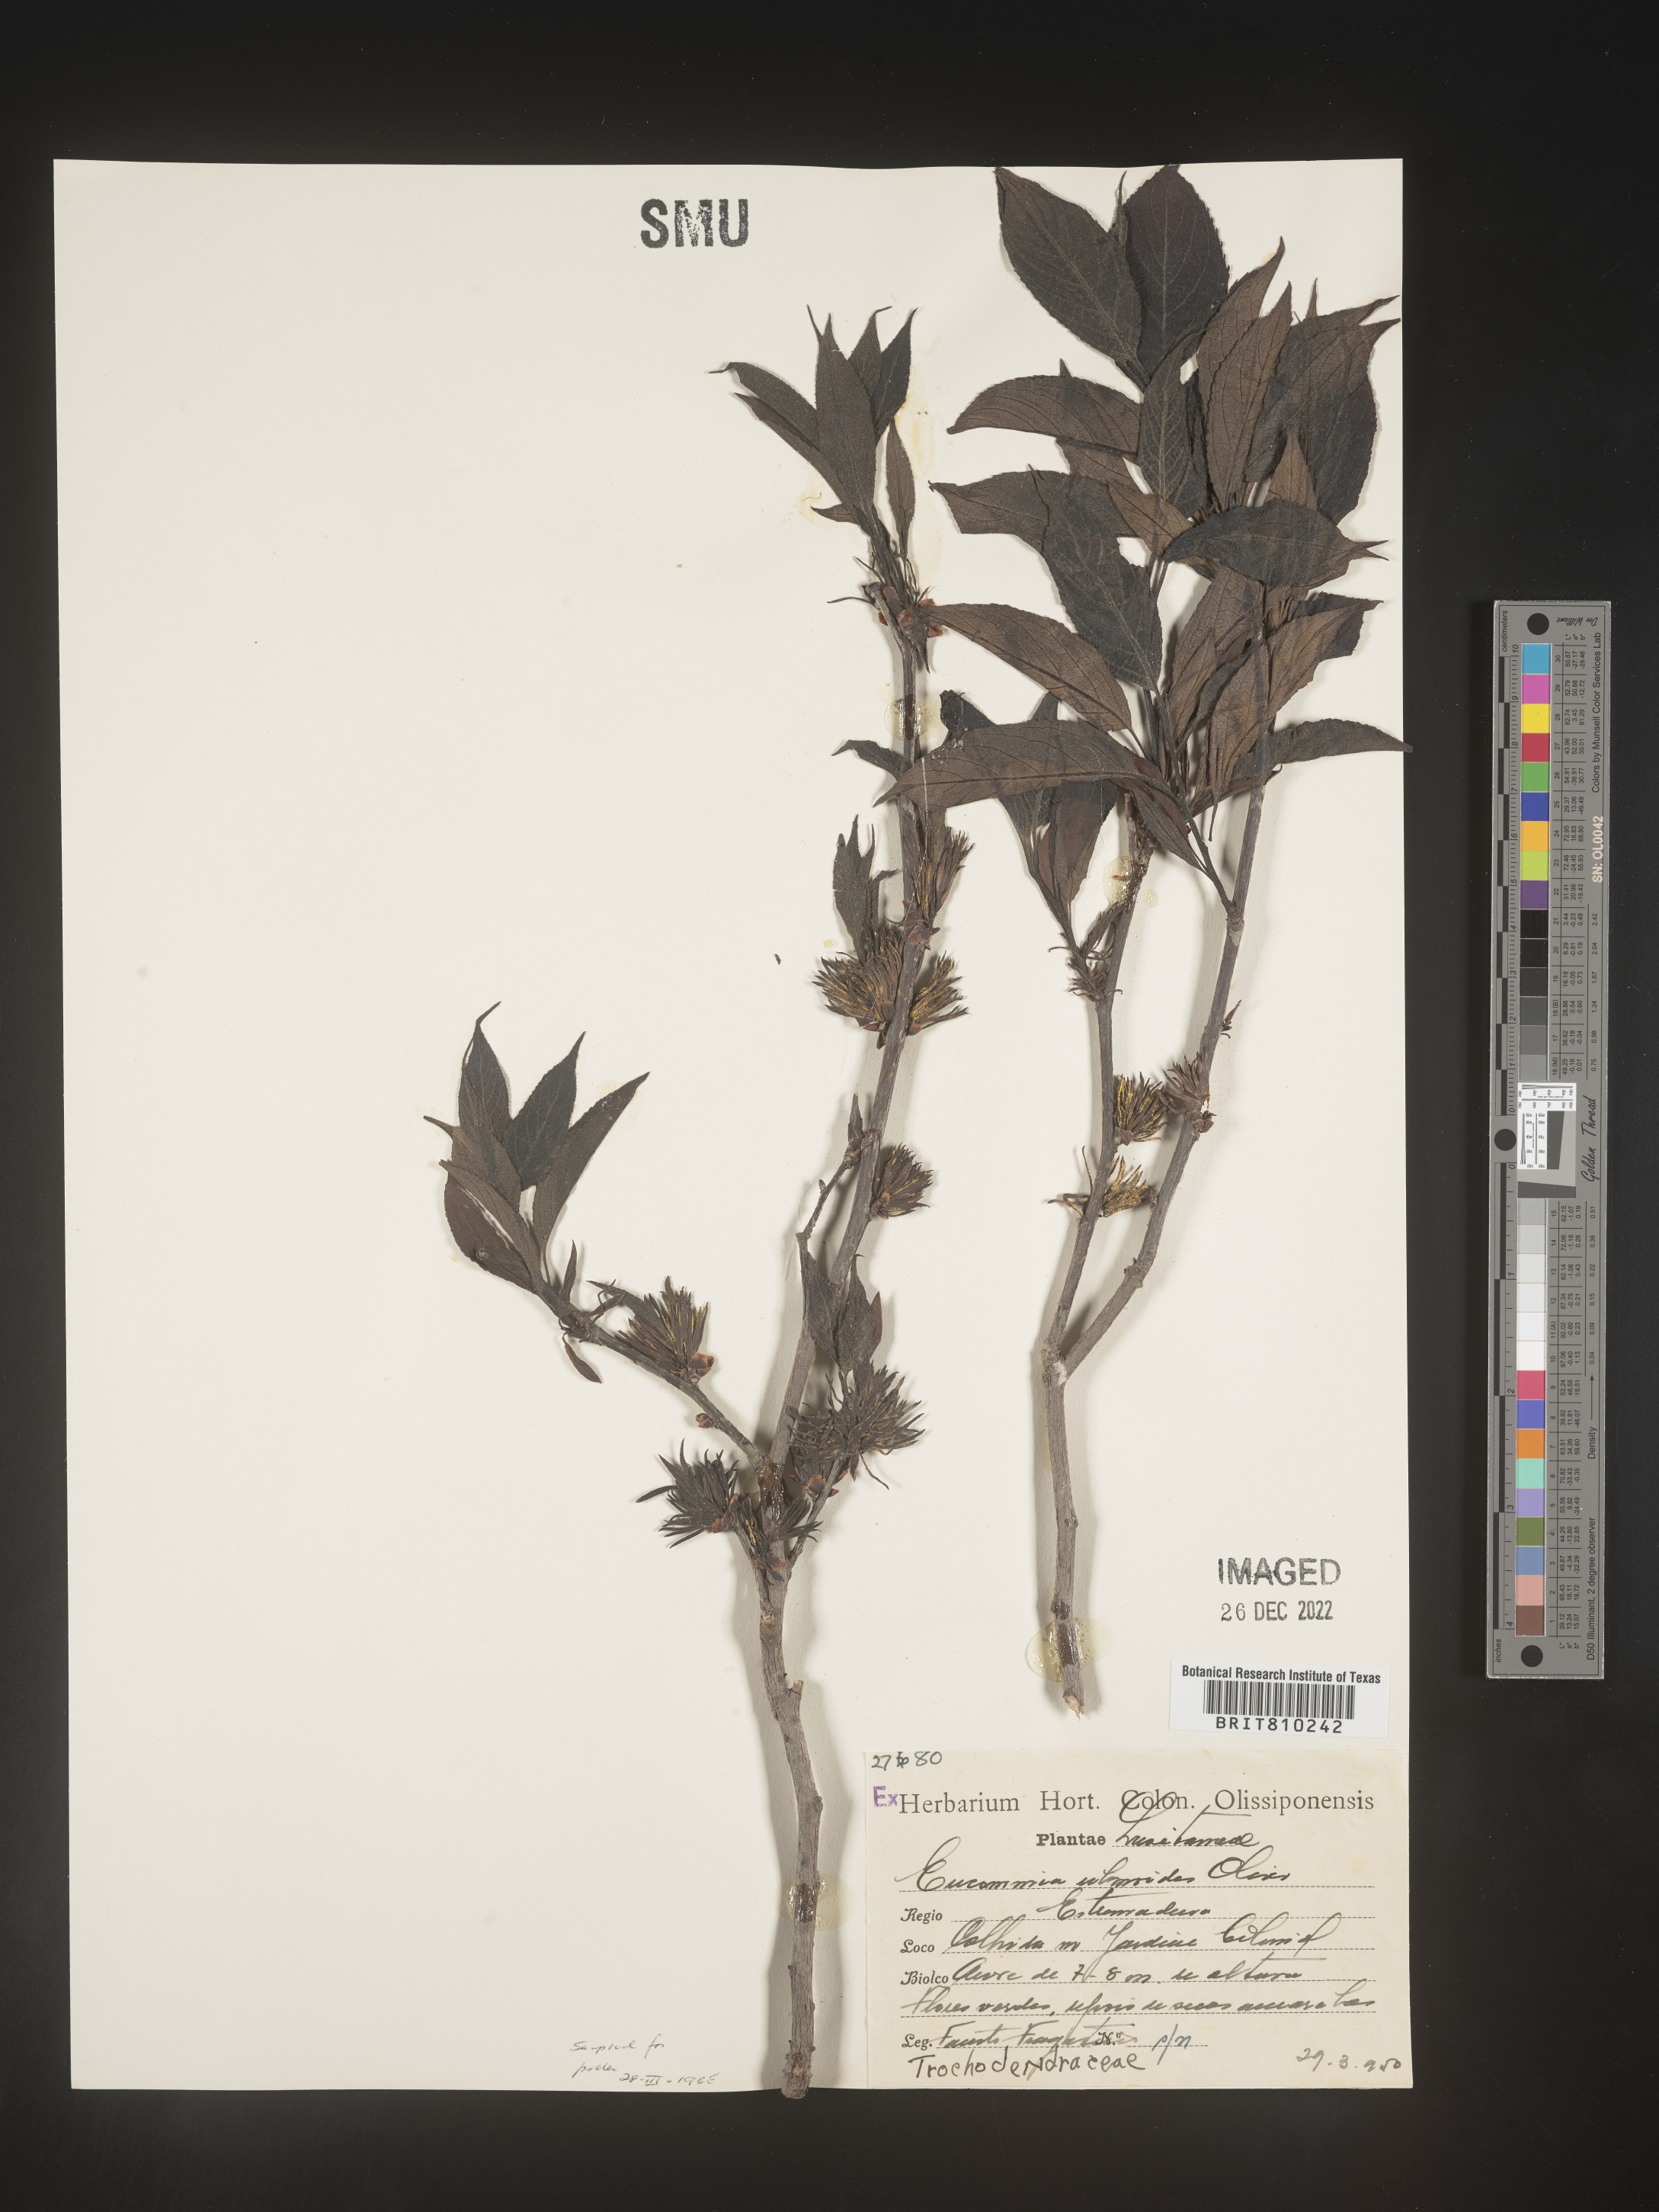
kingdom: Plantae
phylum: Tracheophyta
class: Magnoliopsida
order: Garryales
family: Eucommiaceae
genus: Eucommia
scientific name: Eucommia
